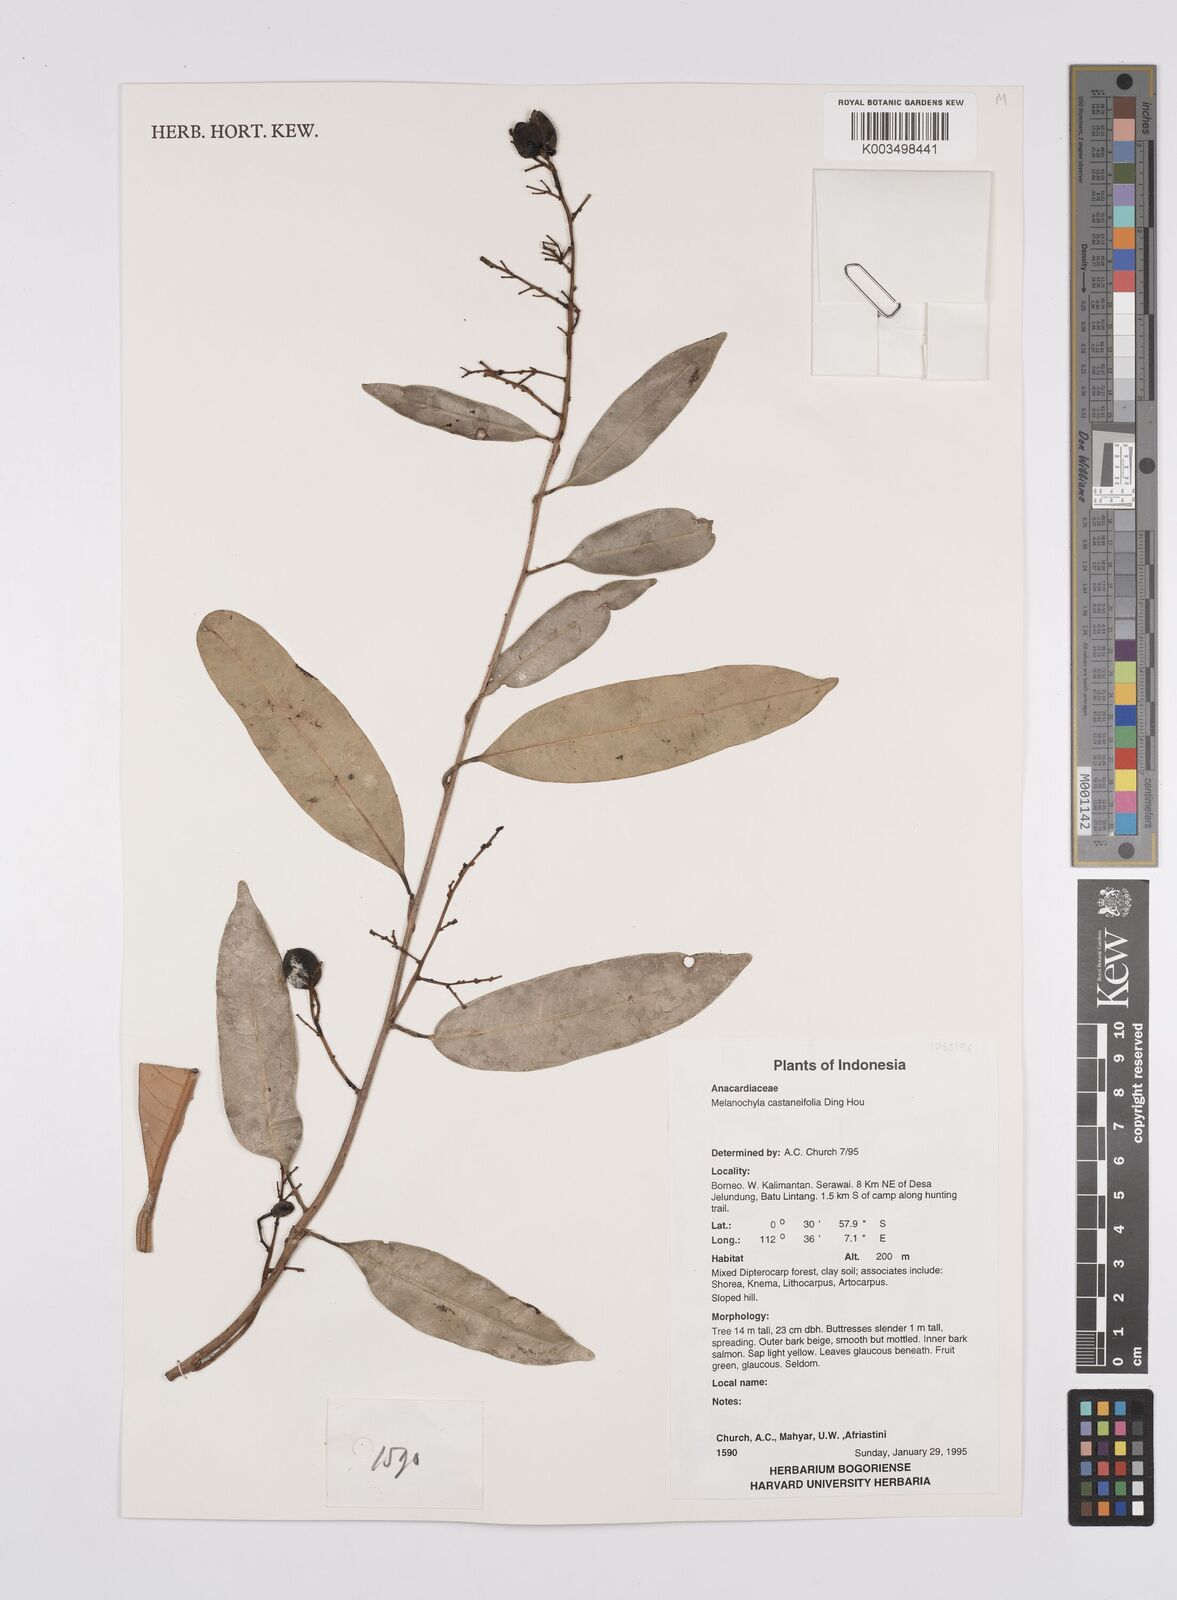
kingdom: Plantae
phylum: Tracheophyta
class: Magnoliopsida
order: Sapindales
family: Anacardiaceae
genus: Melanochyla
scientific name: Melanochyla castaneifolia
